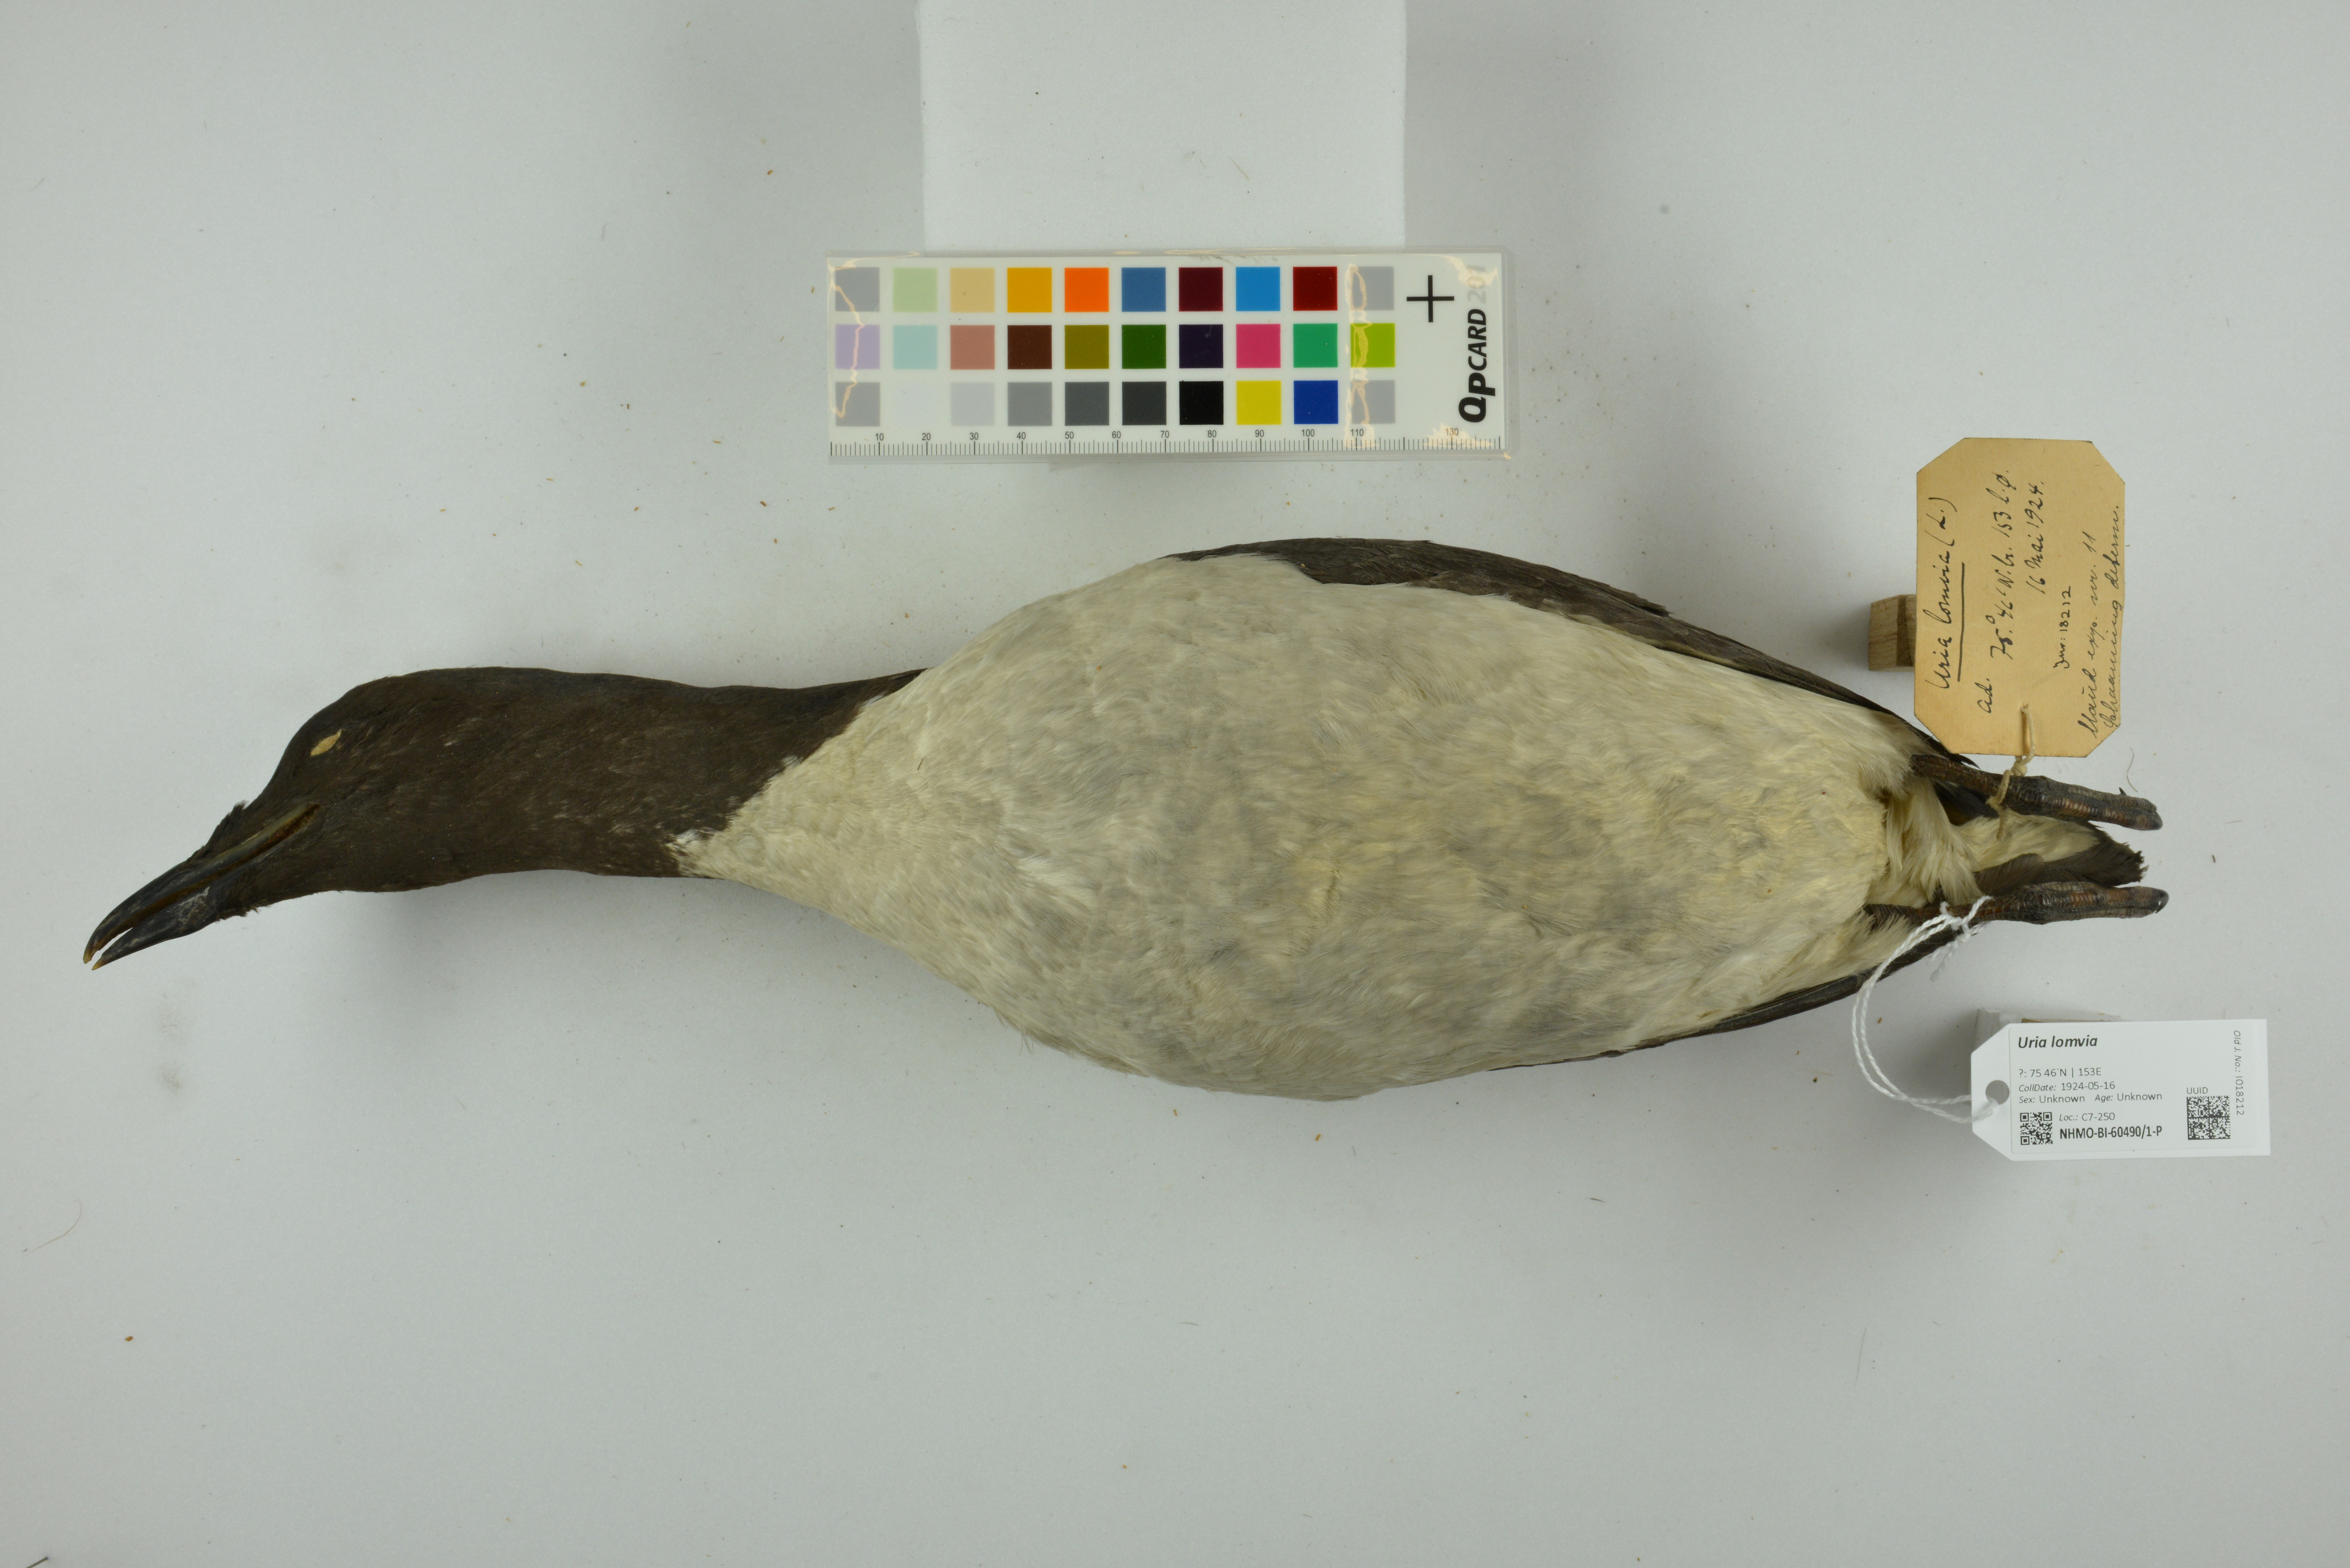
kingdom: Animalia
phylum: Chordata
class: Aves
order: Charadriiformes
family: Alcidae
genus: Uria
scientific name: Uria lomvia
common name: Thick-billed murre
